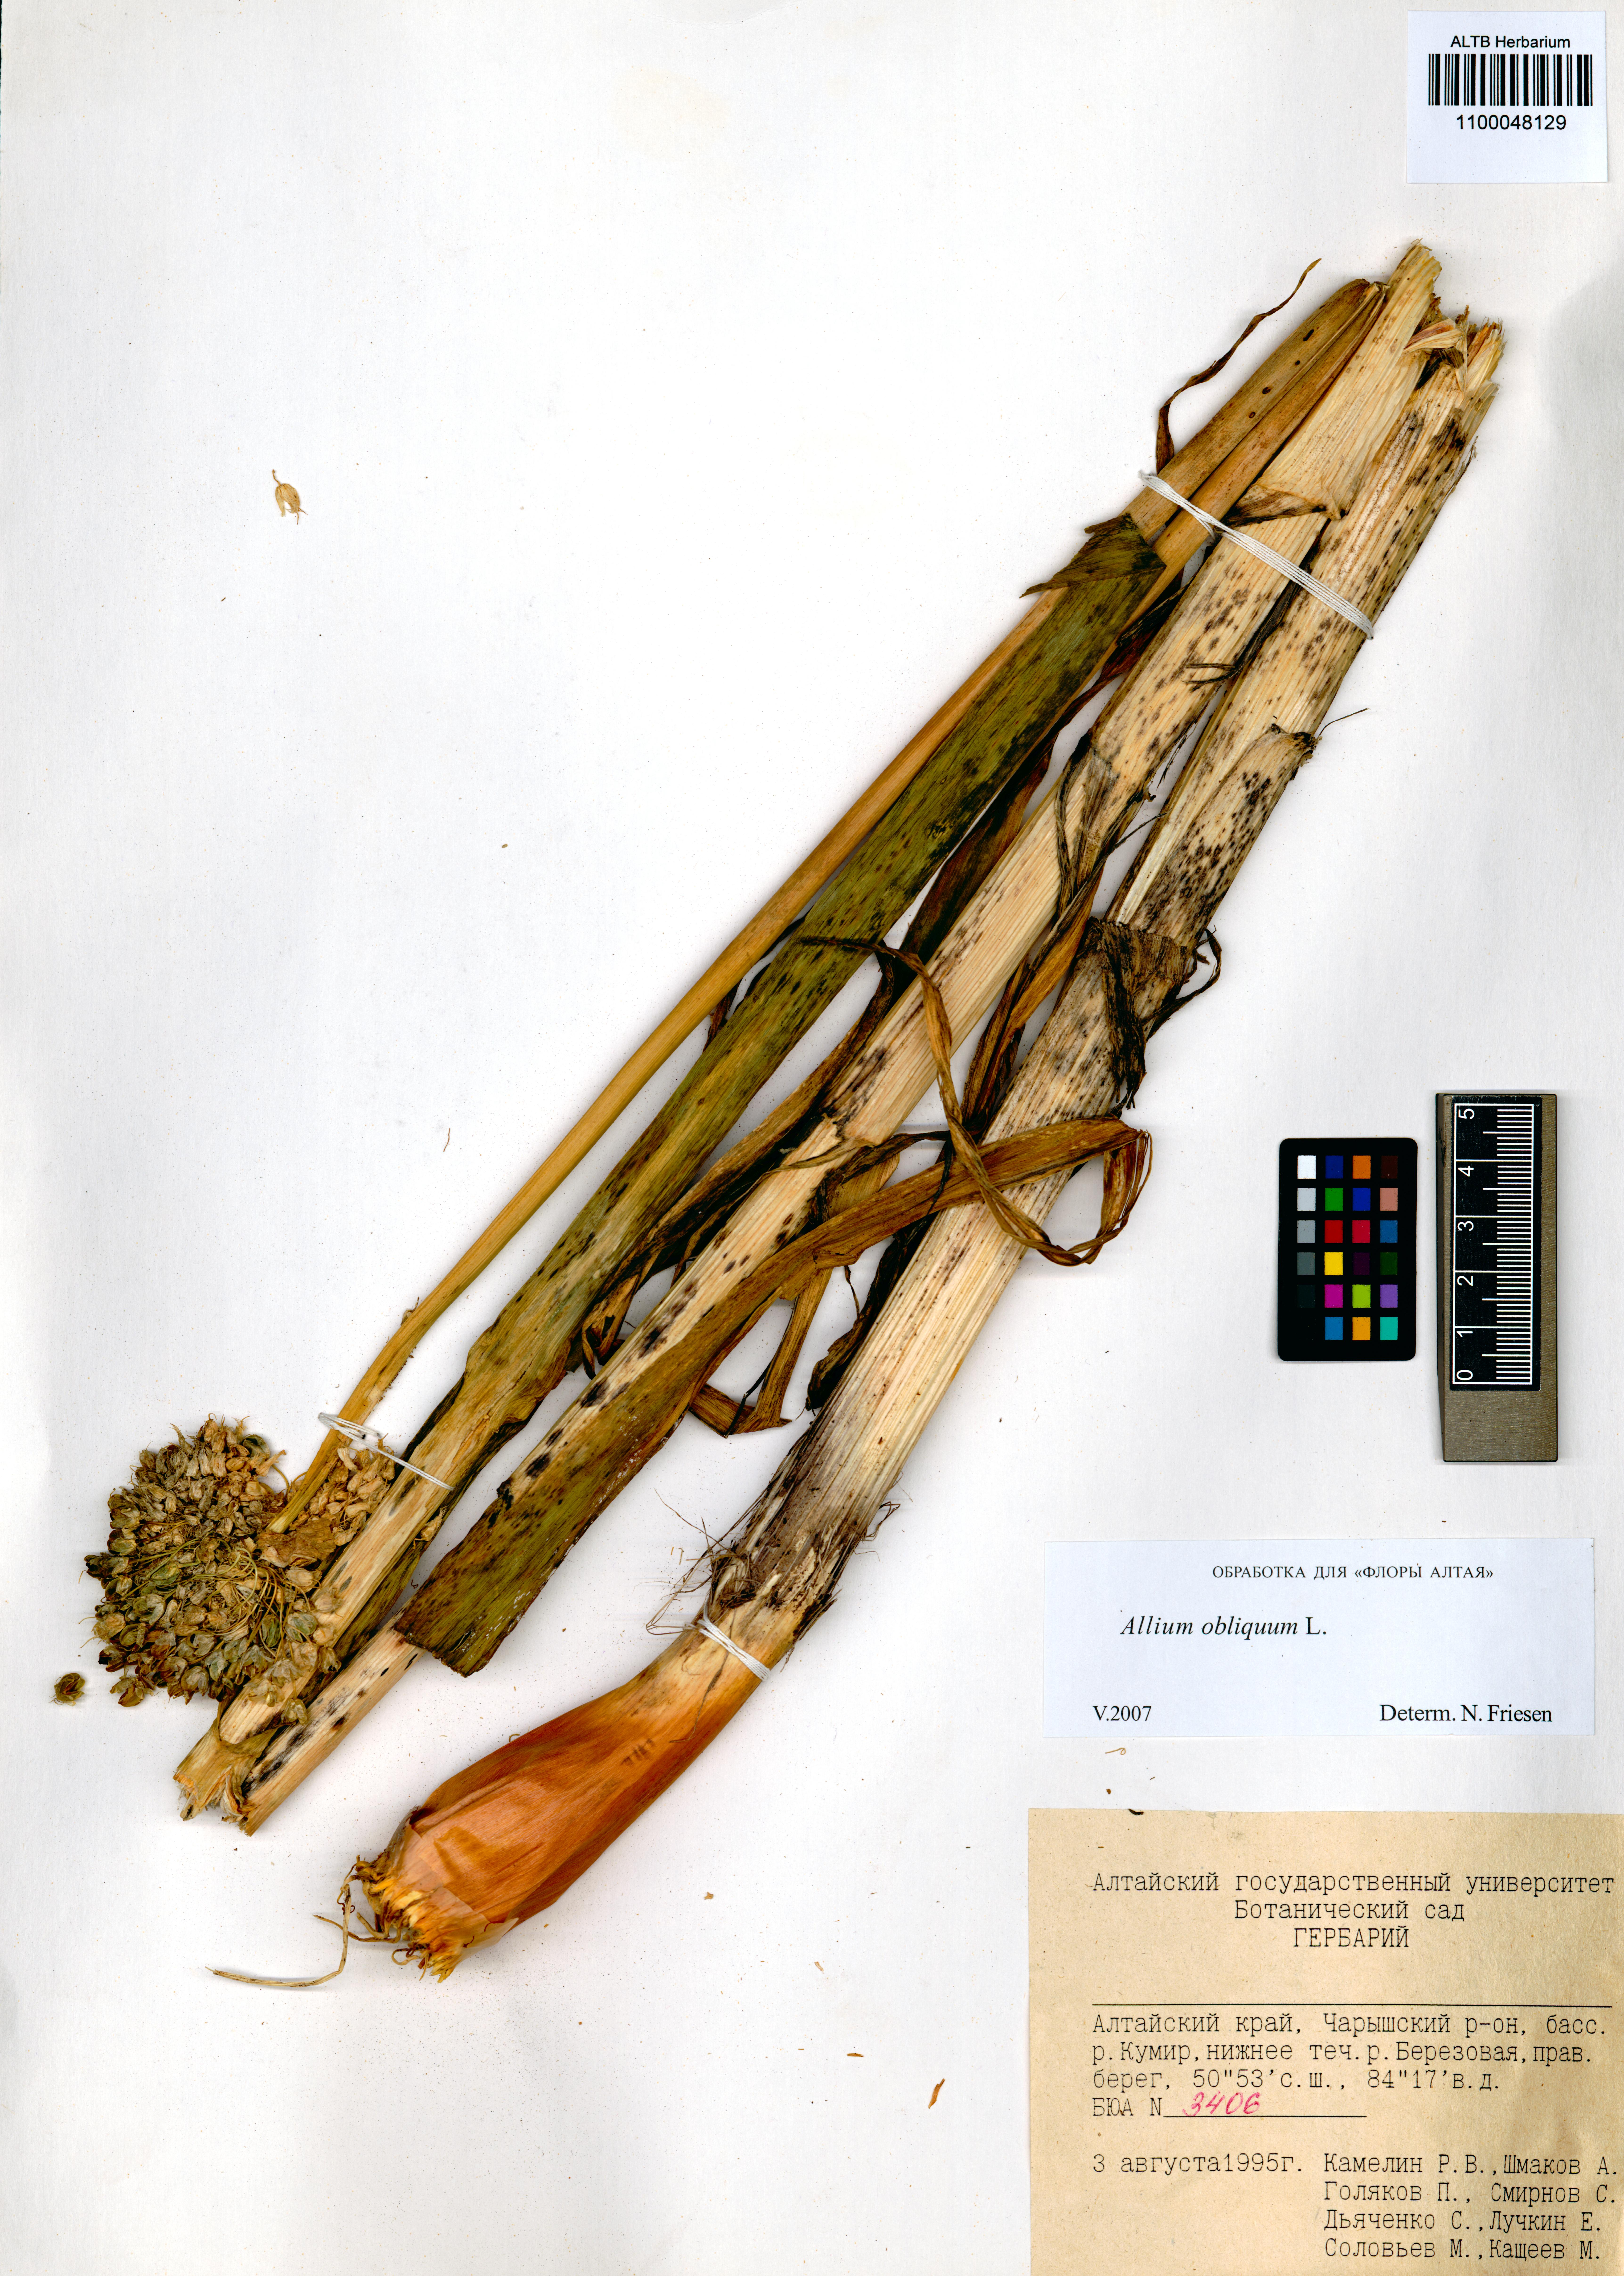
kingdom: Plantae
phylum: Tracheophyta
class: Liliopsida
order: Asparagales
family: Amaryllidaceae
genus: Allium
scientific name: Allium obliquum
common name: Oblique onion
